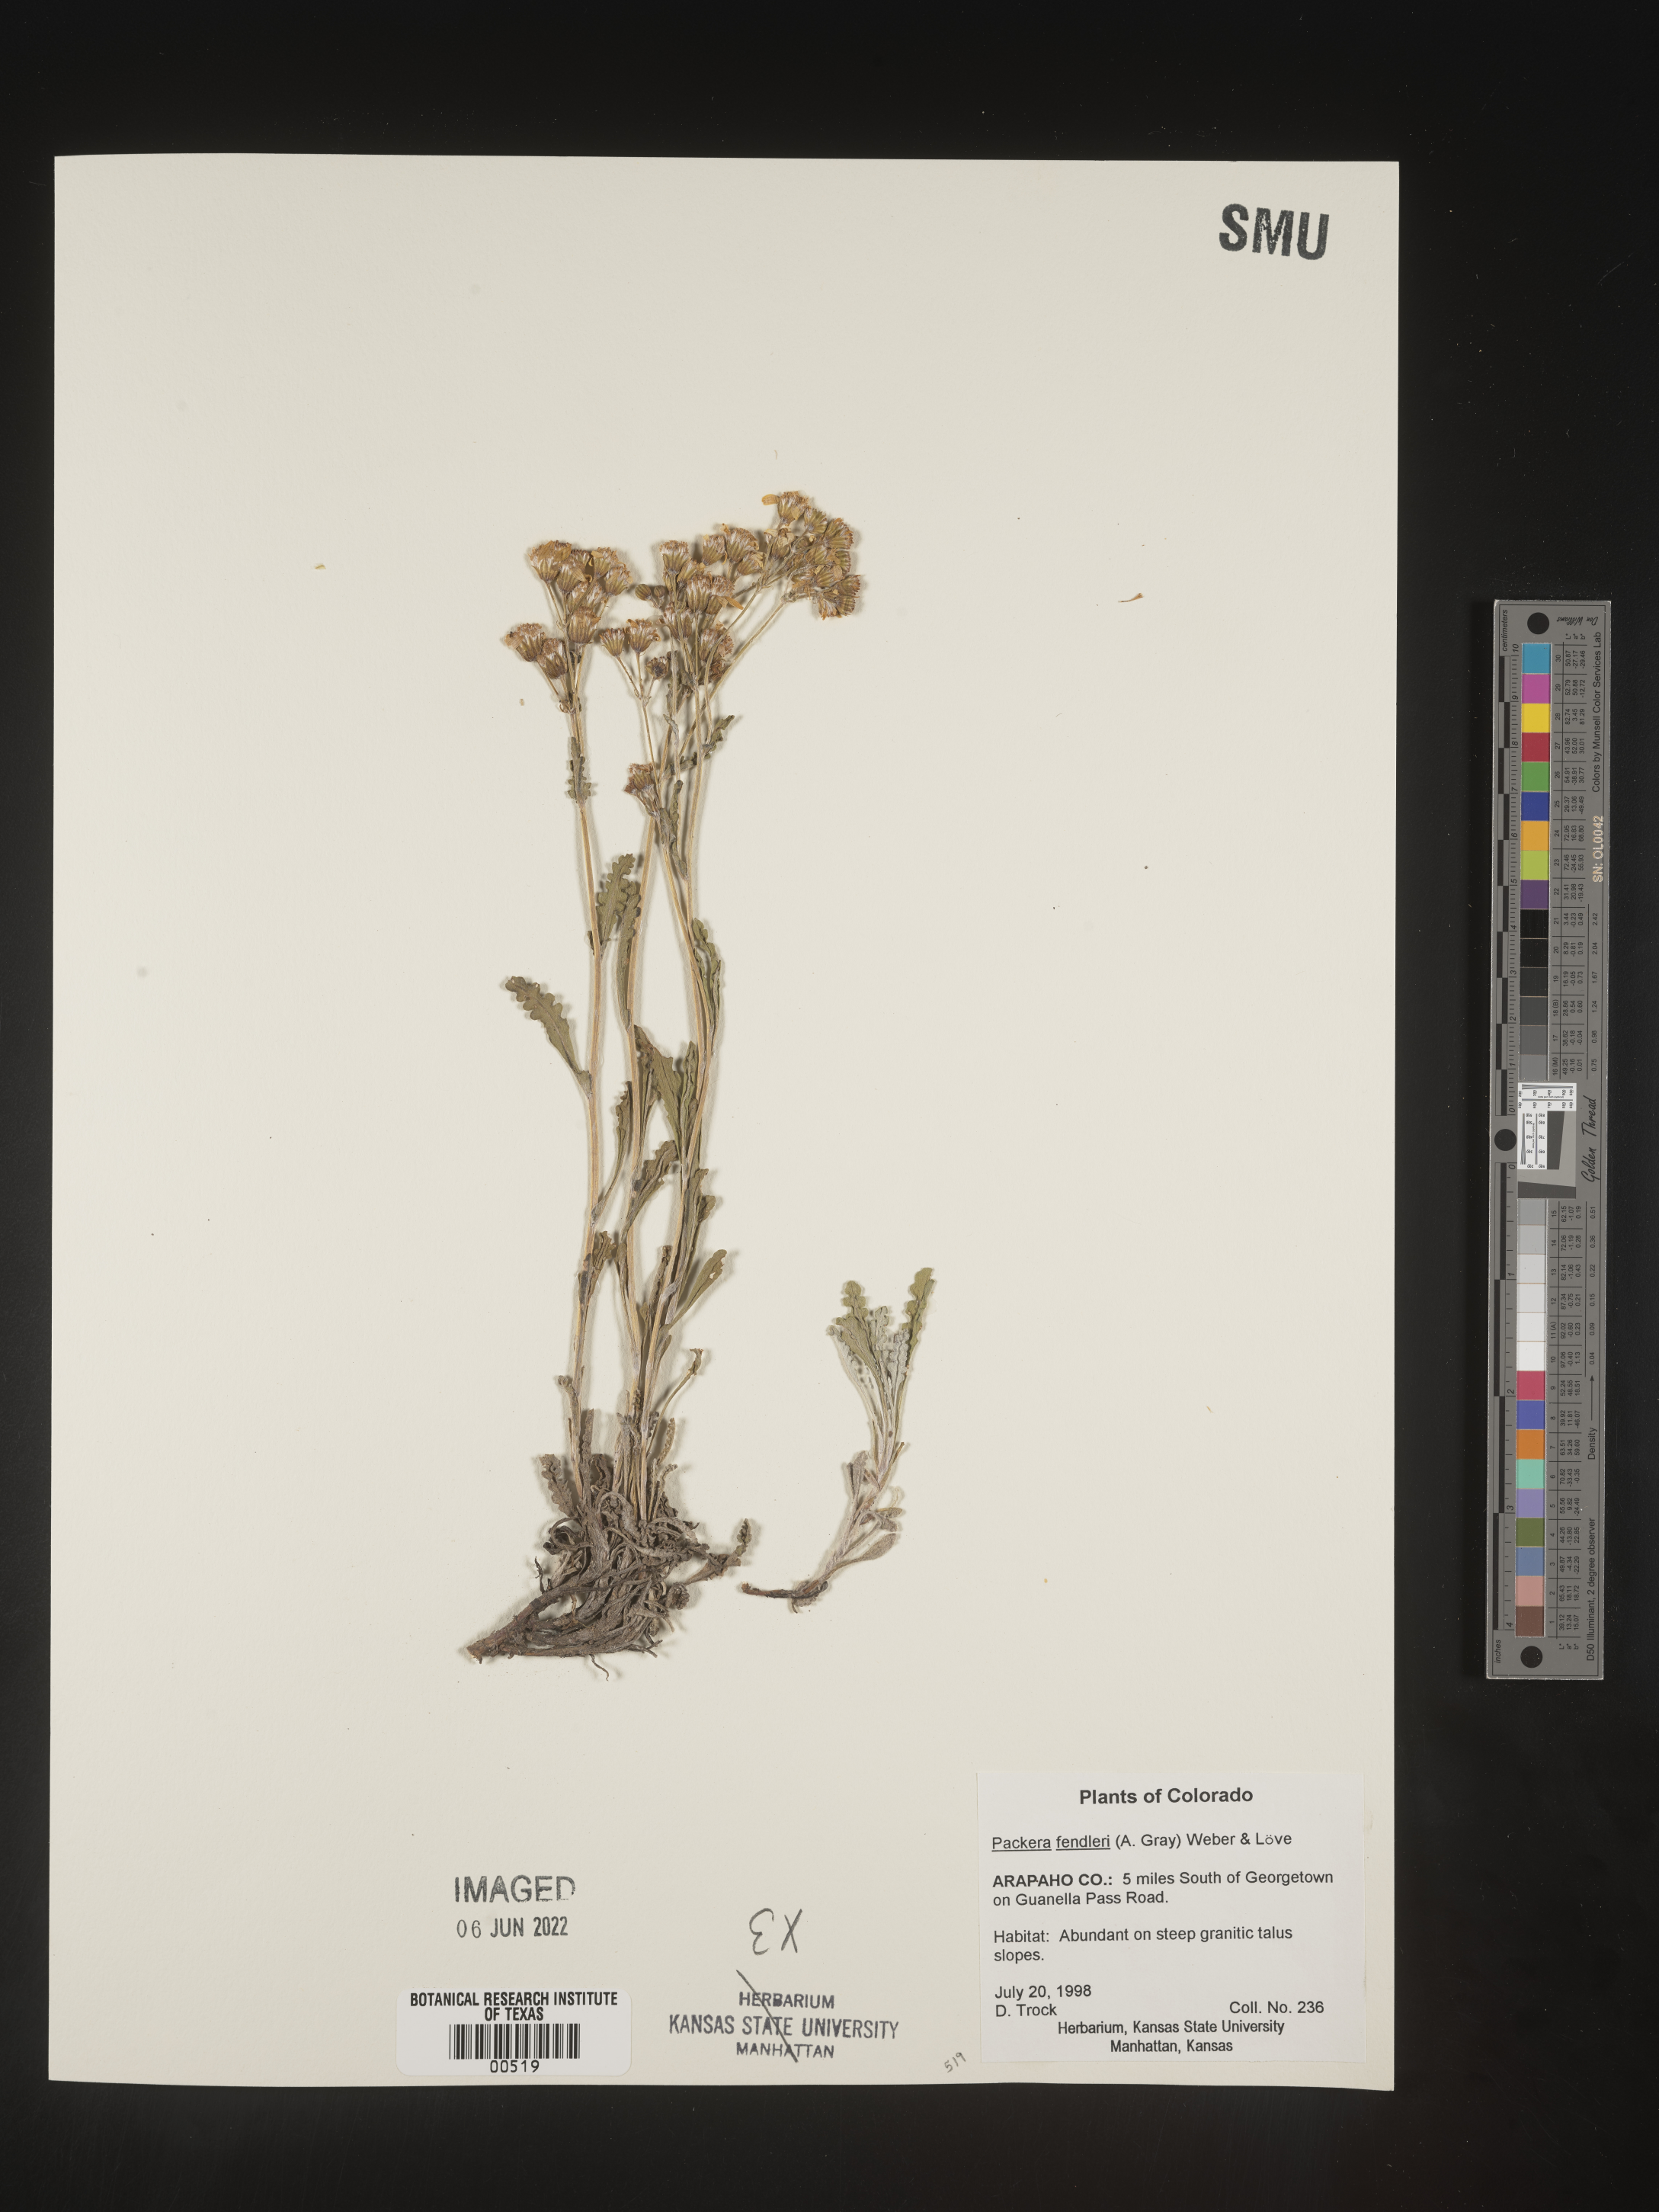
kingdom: Plantae
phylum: Tracheophyta
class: Magnoliopsida
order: Asterales
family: Asteraceae
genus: Packera
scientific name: Packera fendleri
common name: Notch-leaf butterweed
